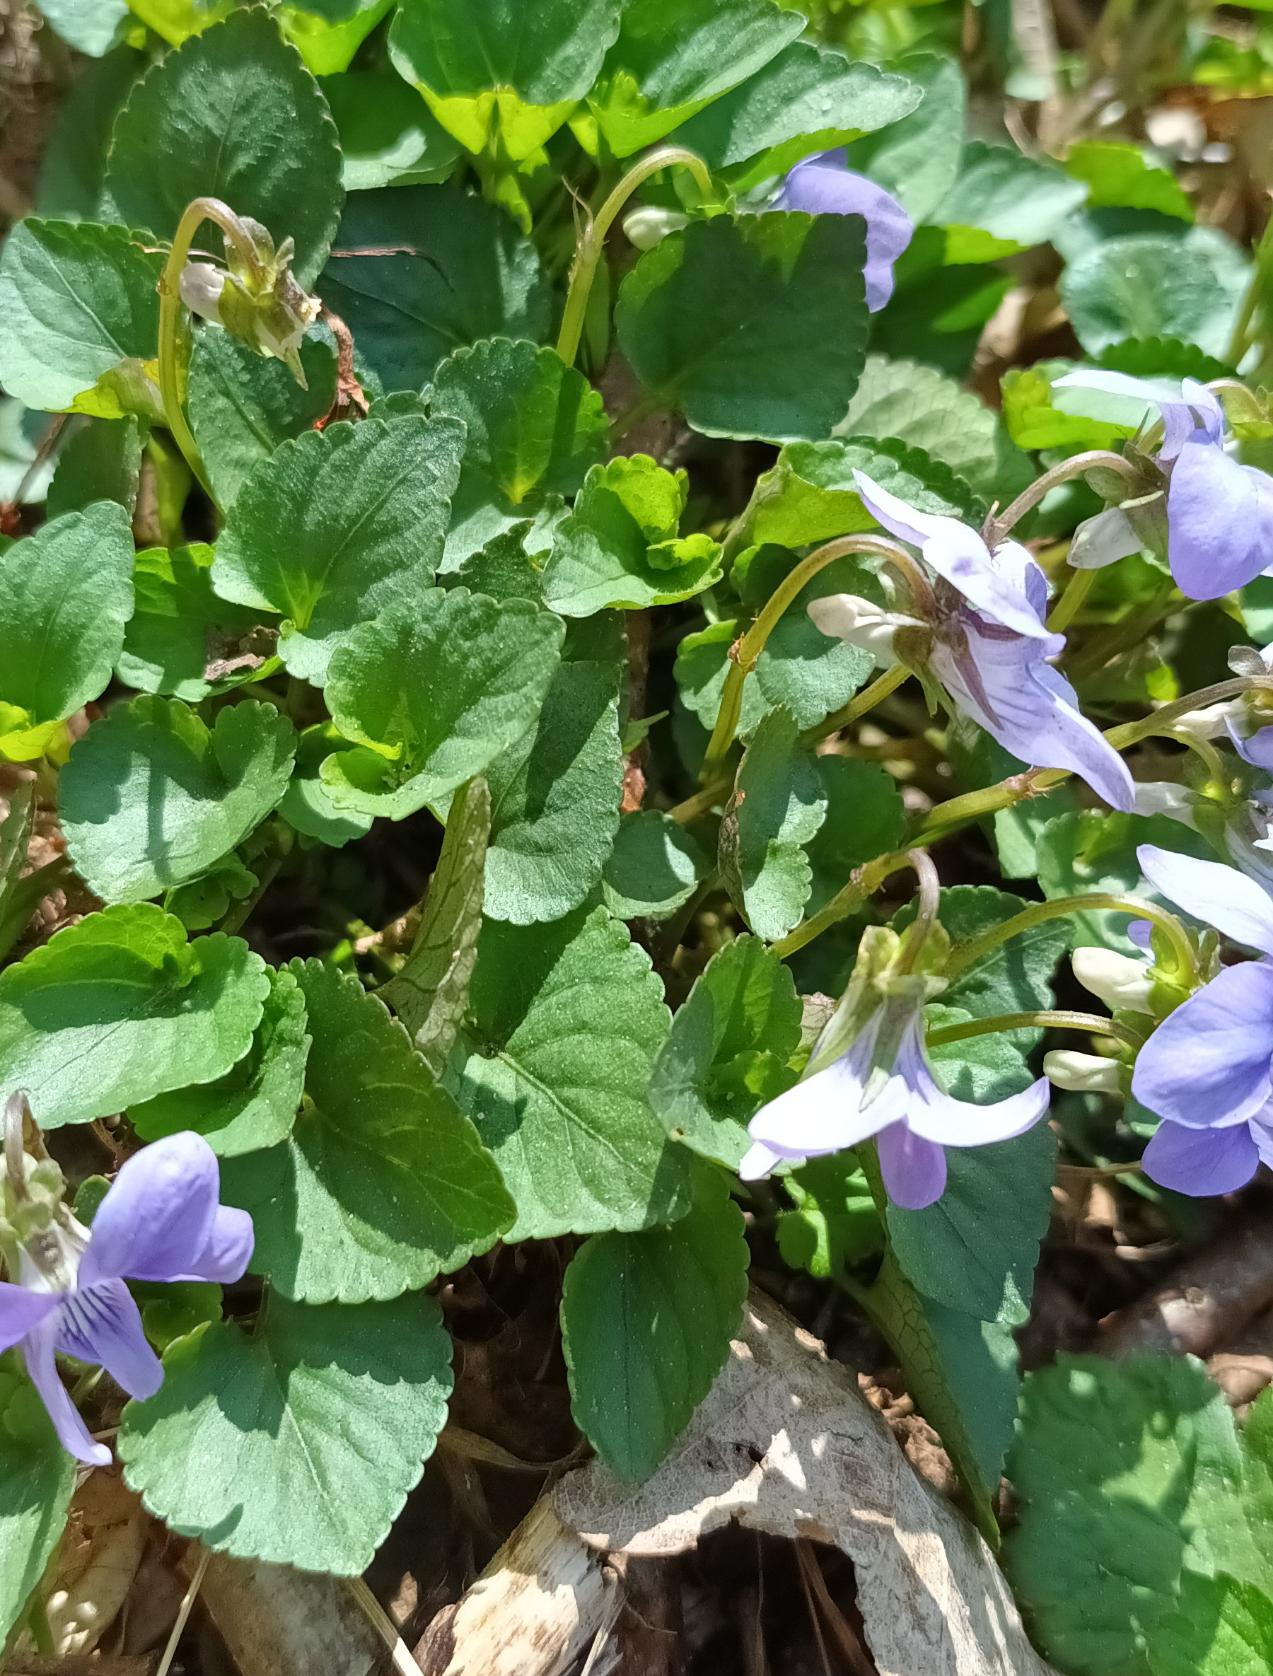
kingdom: Plantae
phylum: Tracheophyta
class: Magnoliopsida
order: Malpighiales
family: Violaceae
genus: Viola
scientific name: Viola riviniana
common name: Krat-viol
